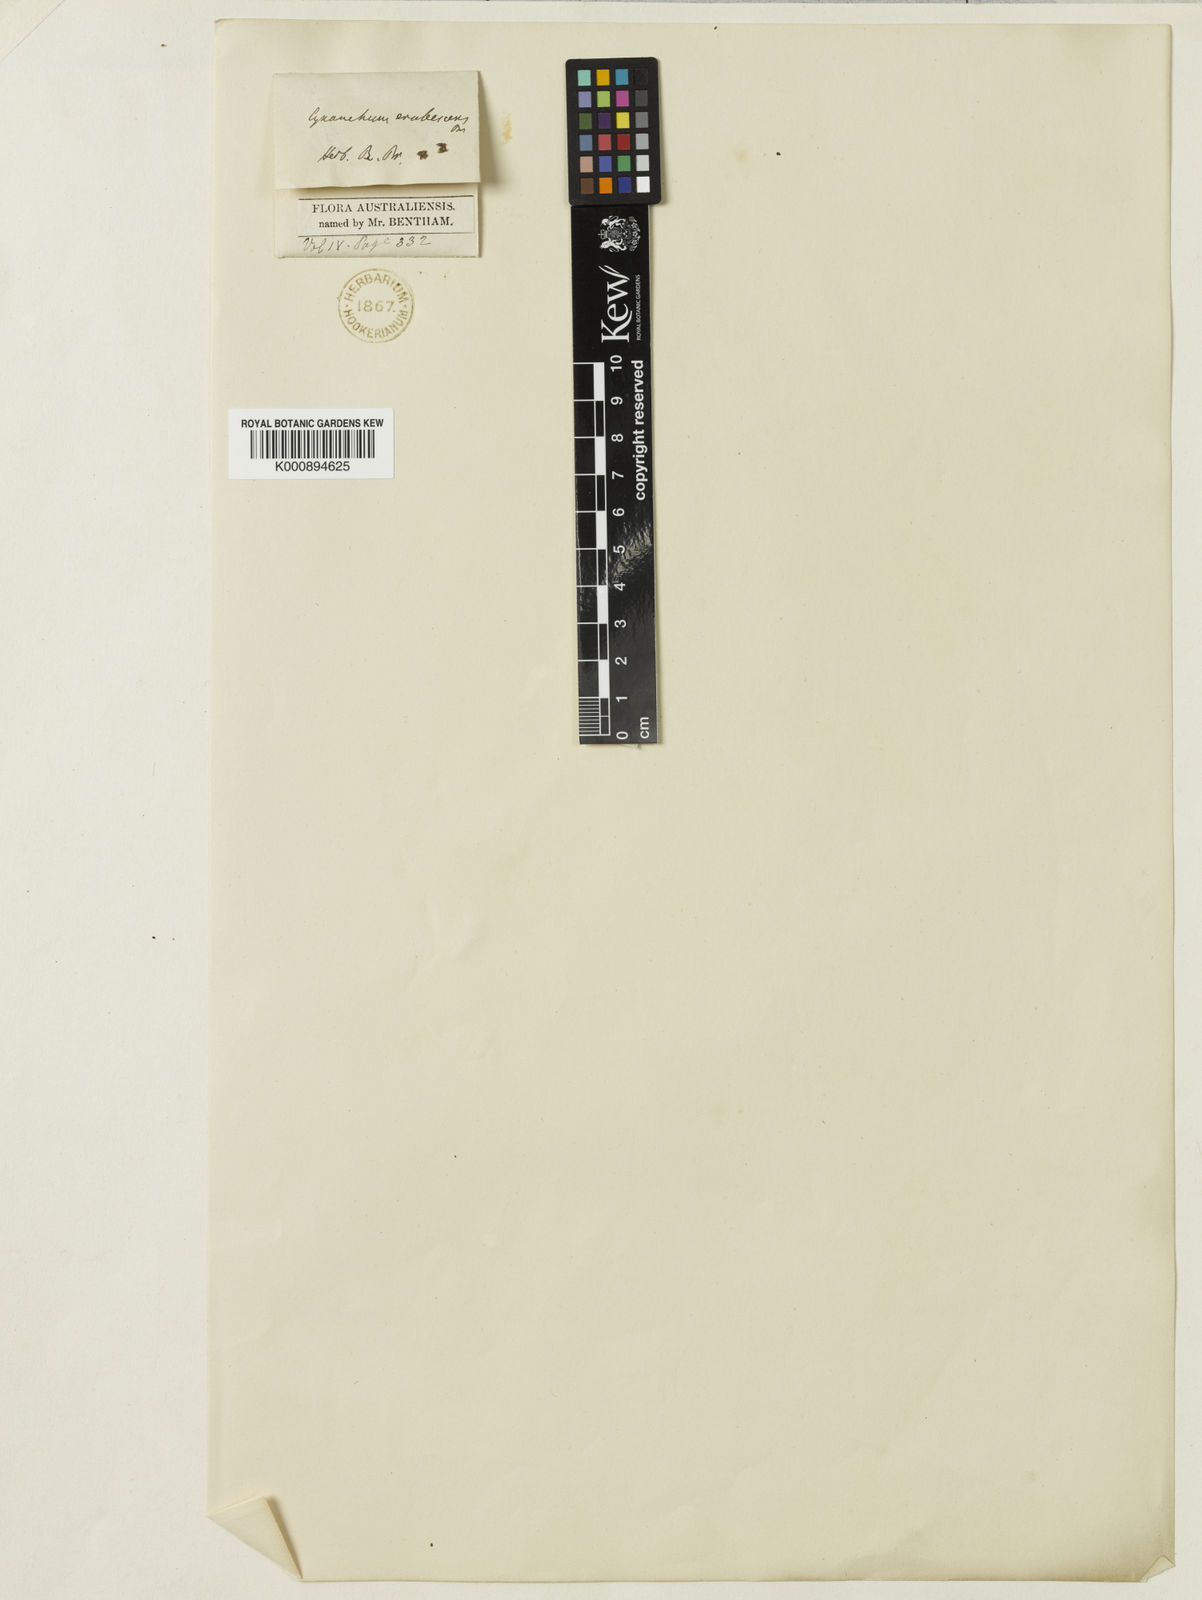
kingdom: Plantae
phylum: Tracheophyta
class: Magnoliopsida
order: Gentianales
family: Apocynaceae
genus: Vincetoxicum
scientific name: Vincetoxicum pedunculatum
